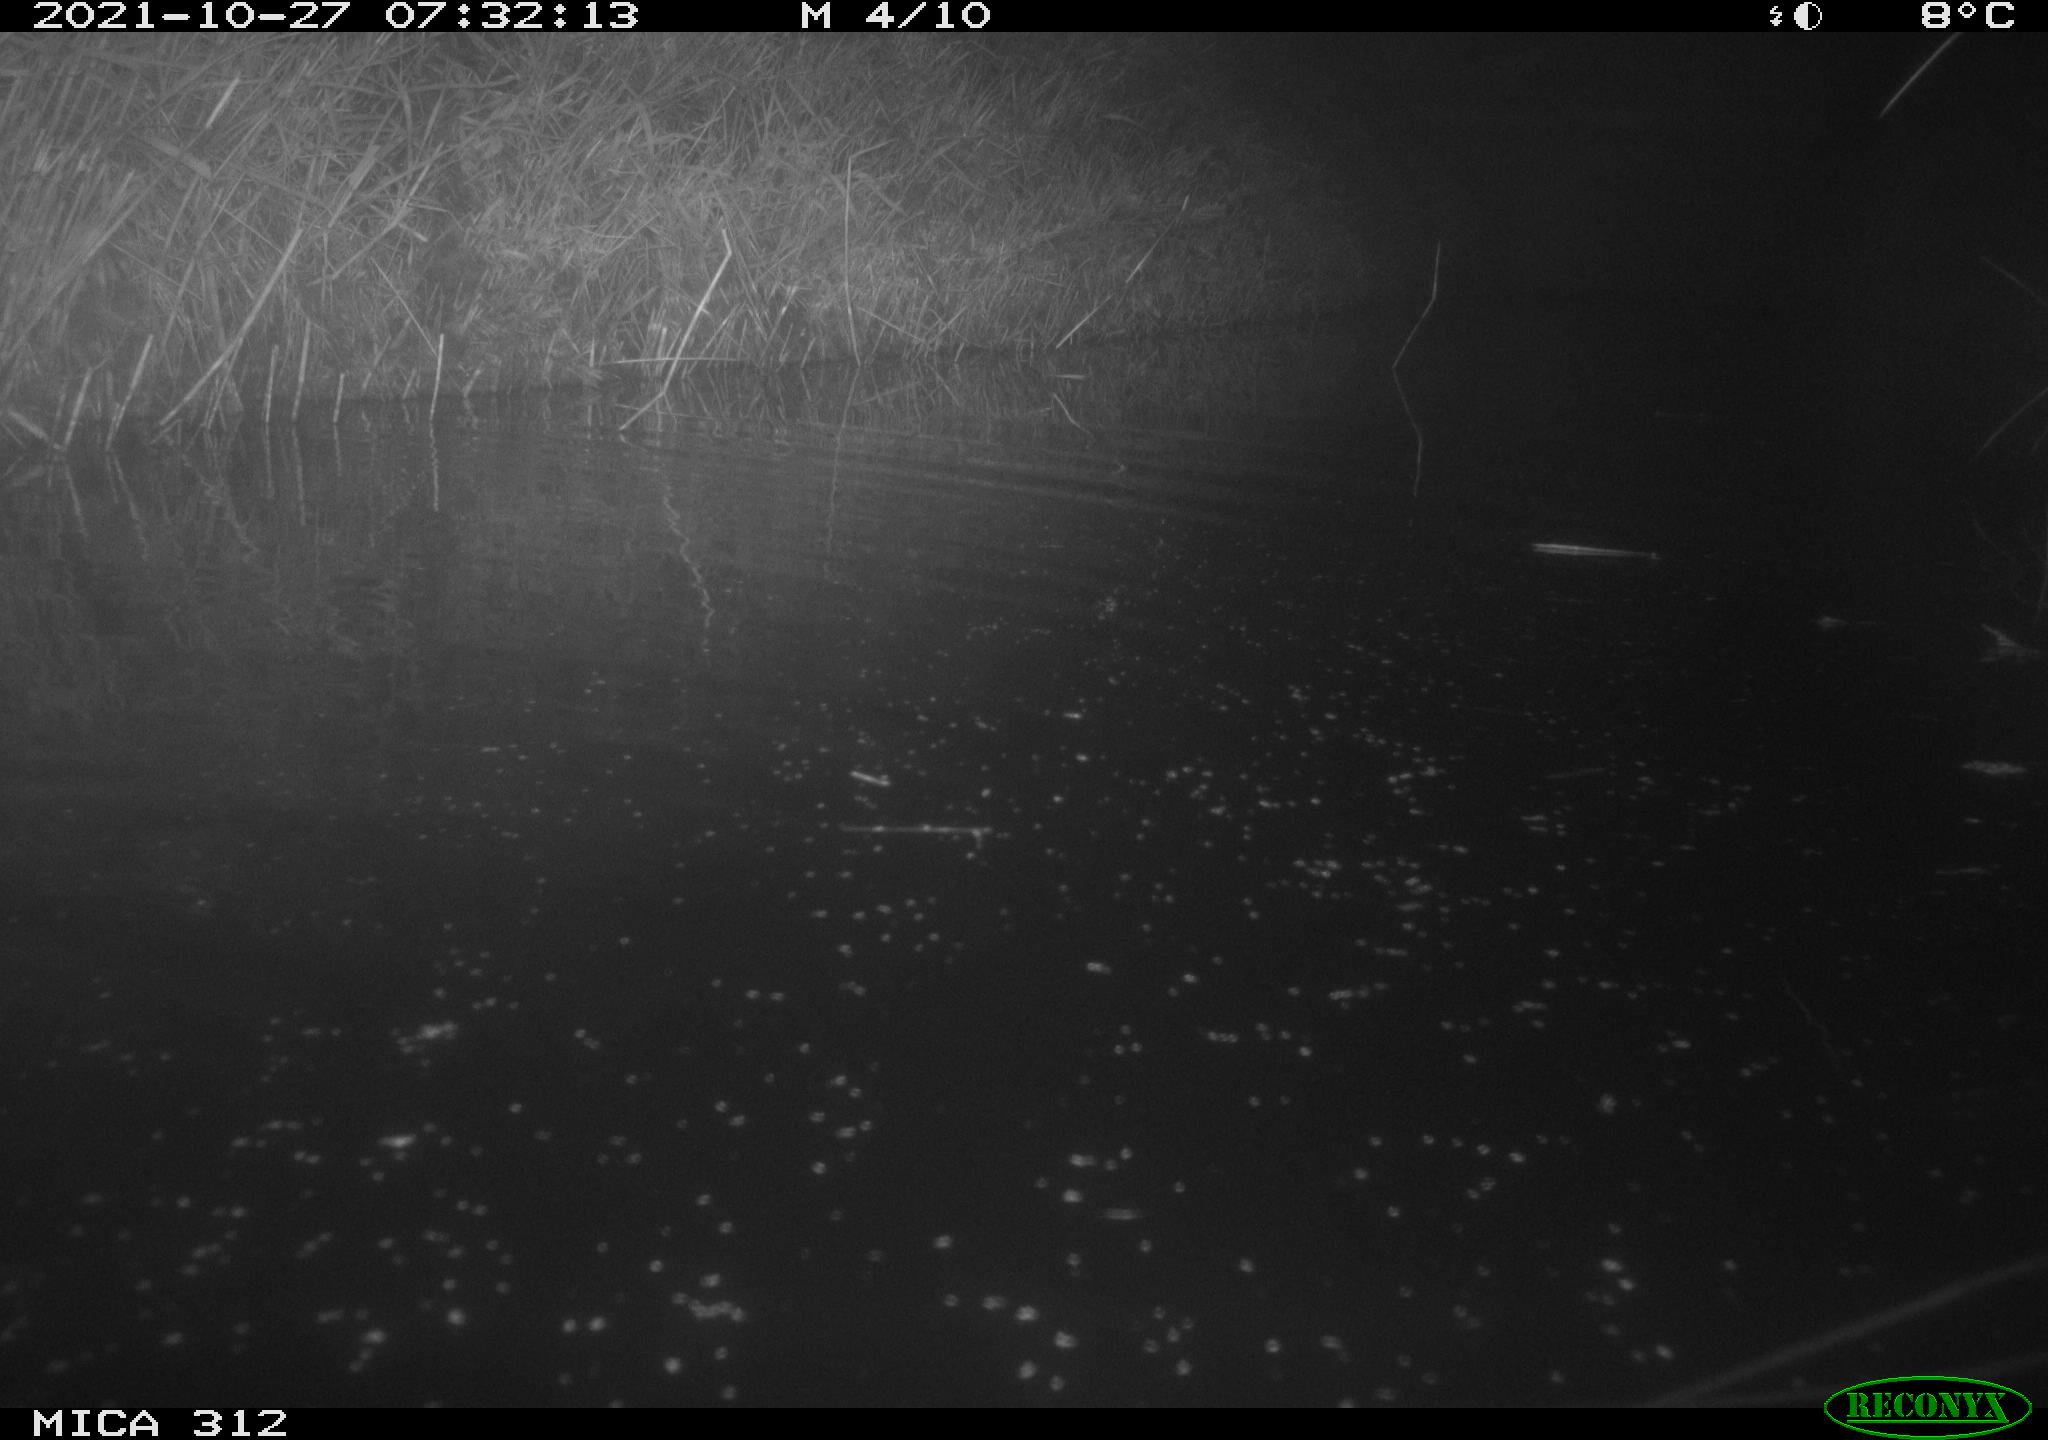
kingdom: Animalia
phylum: Chordata
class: Mammalia
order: Rodentia
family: Muridae
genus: Rattus
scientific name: Rattus norvegicus
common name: Brown rat
